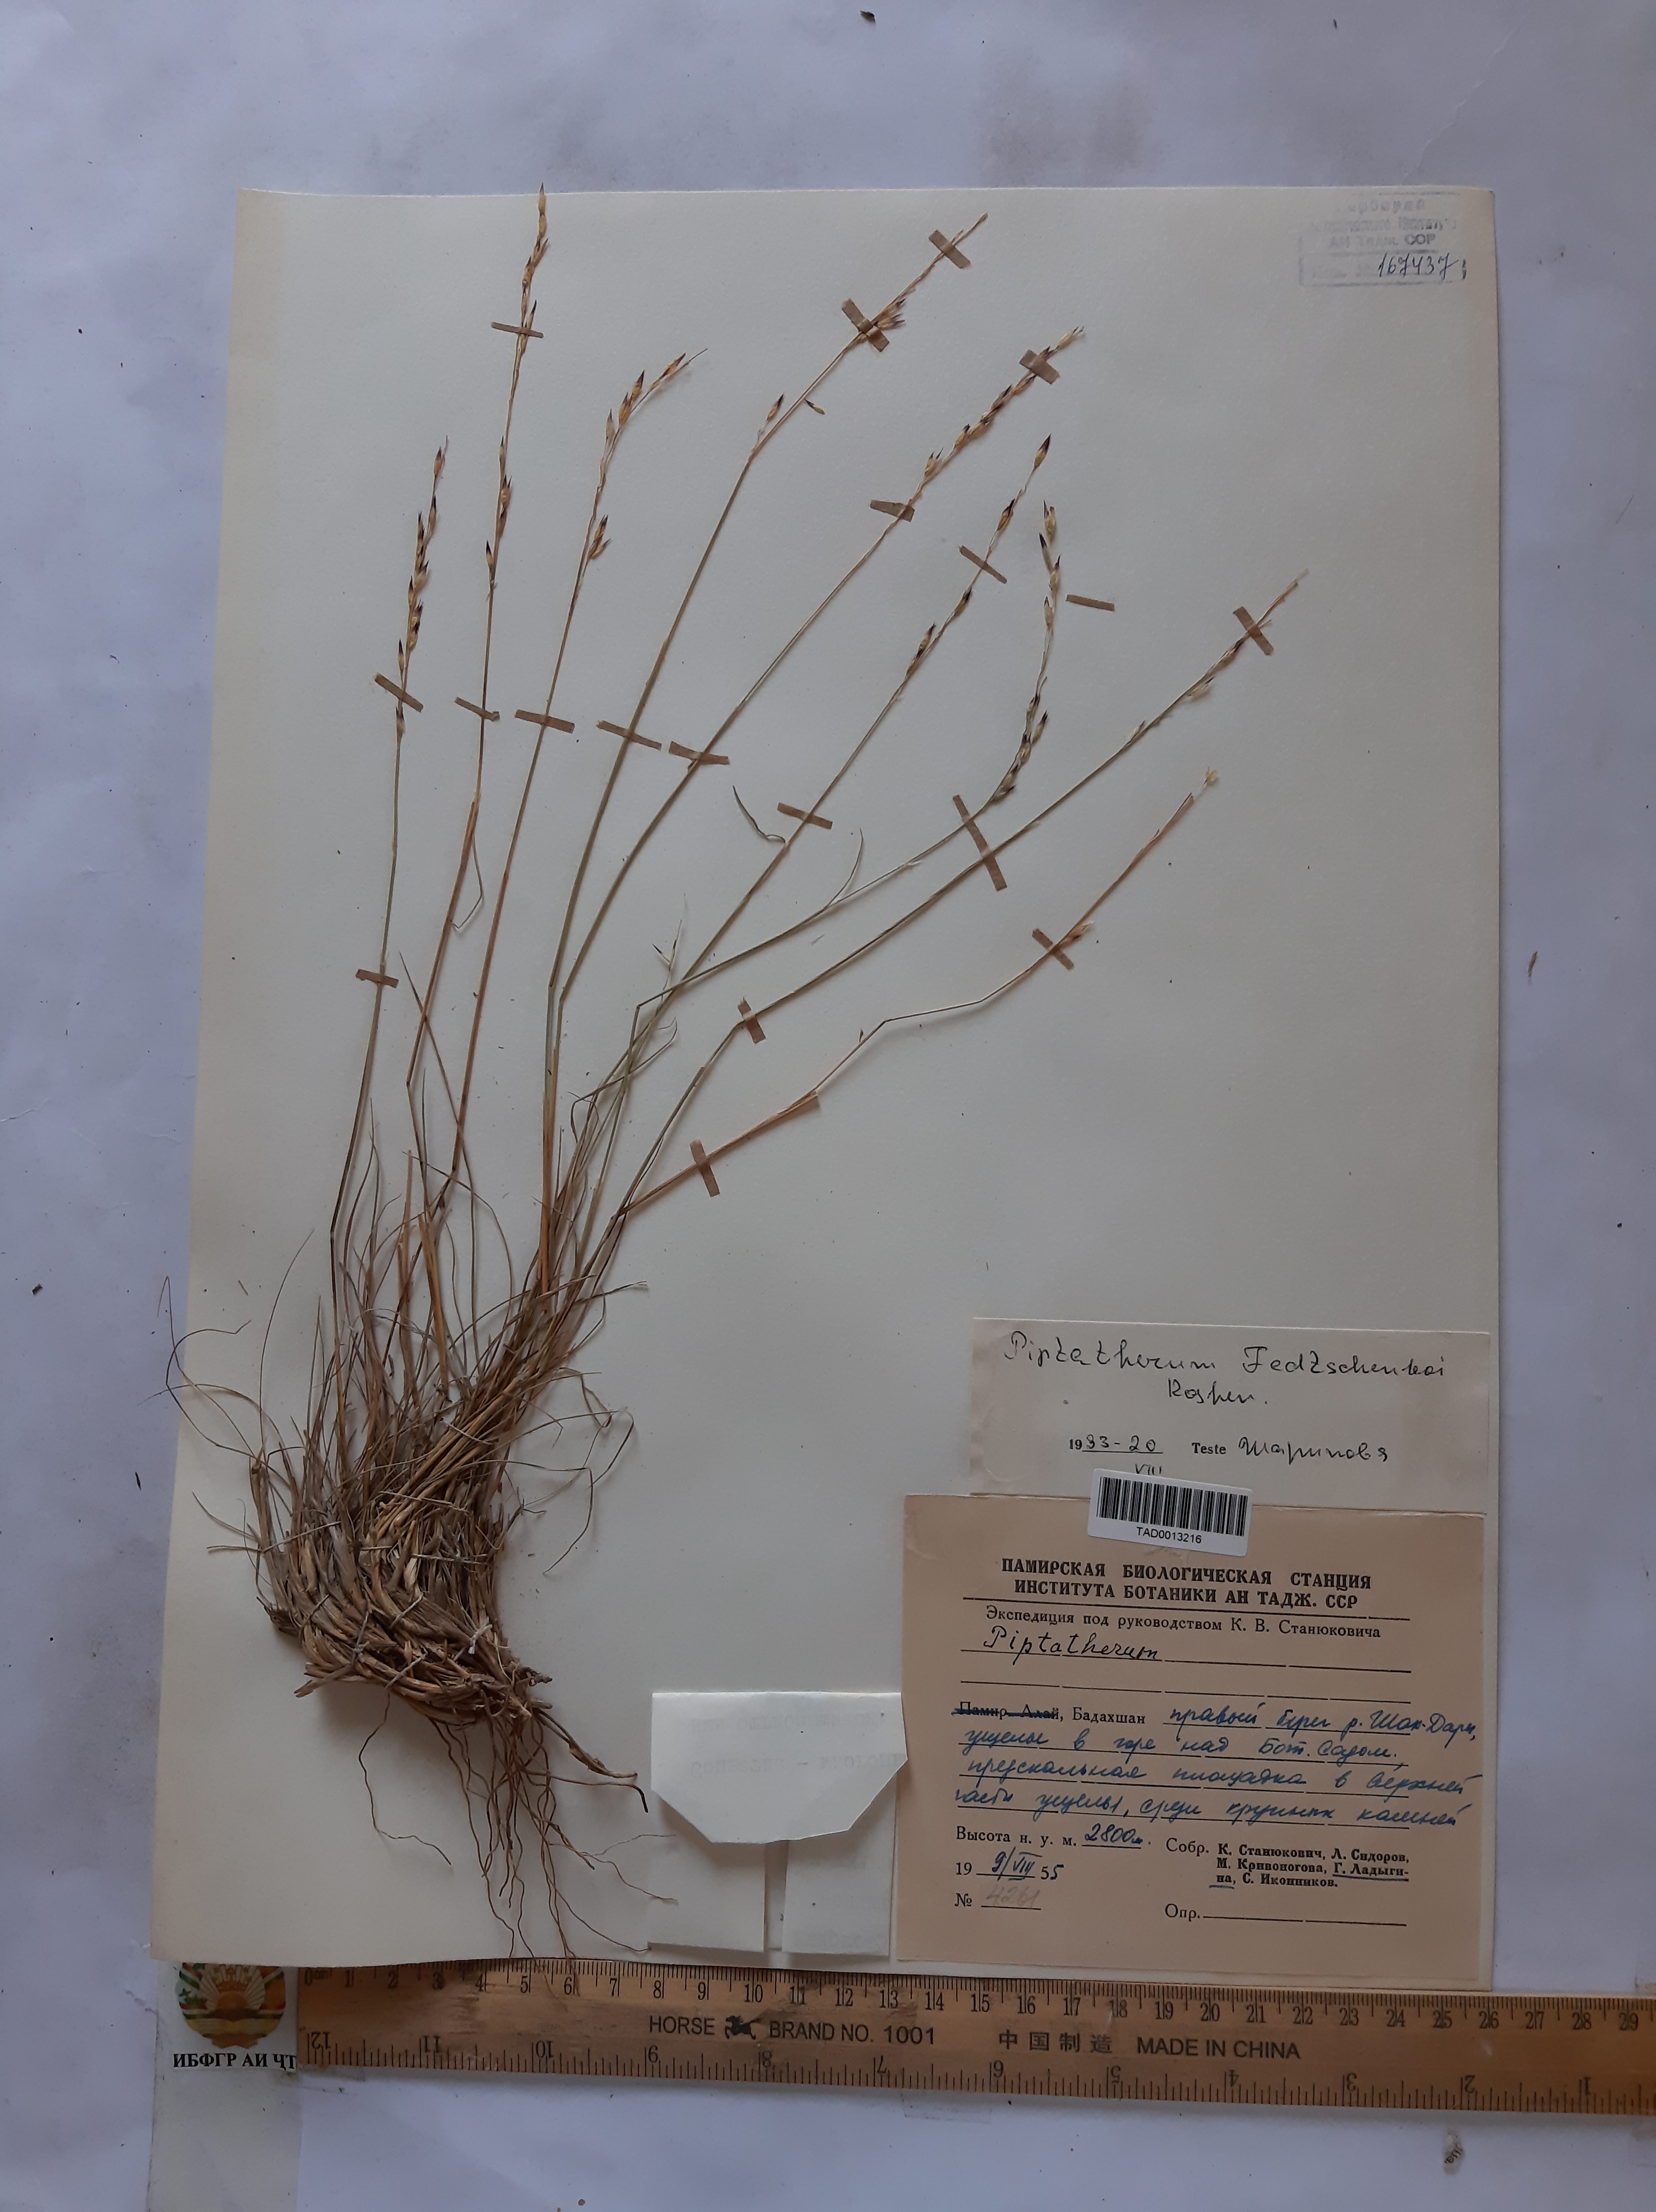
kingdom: Plantae
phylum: Tracheophyta
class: Liliopsida
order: Poales
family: Poaceae
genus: Piptatherum
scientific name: Piptatherum sogdianum
